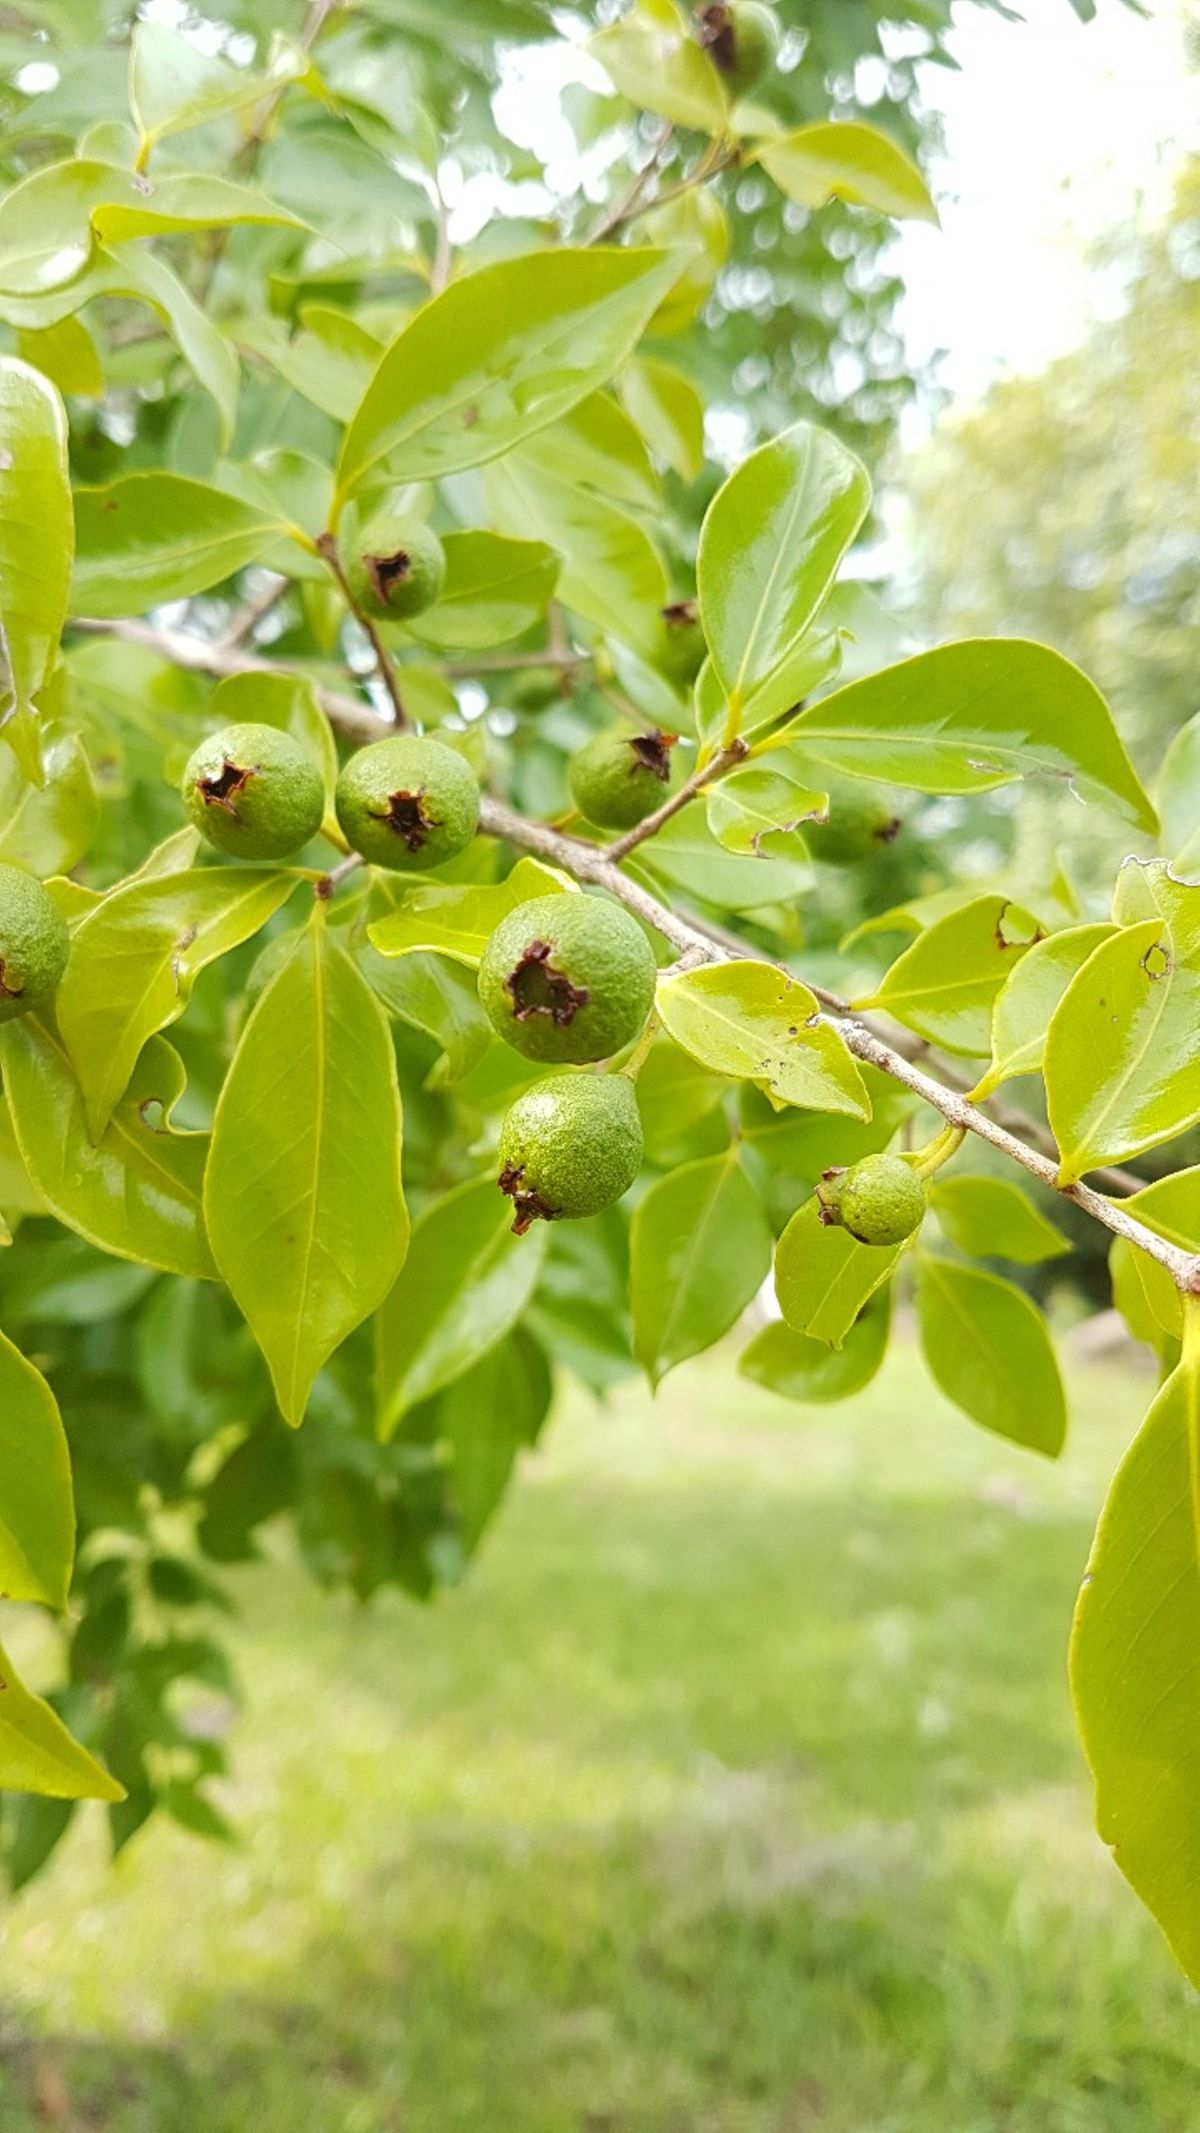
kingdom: Plantae
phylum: Tracheophyta
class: Magnoliopsida
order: Myrtales
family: Myrtaceae
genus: Psidium
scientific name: Psidium oligospermum
